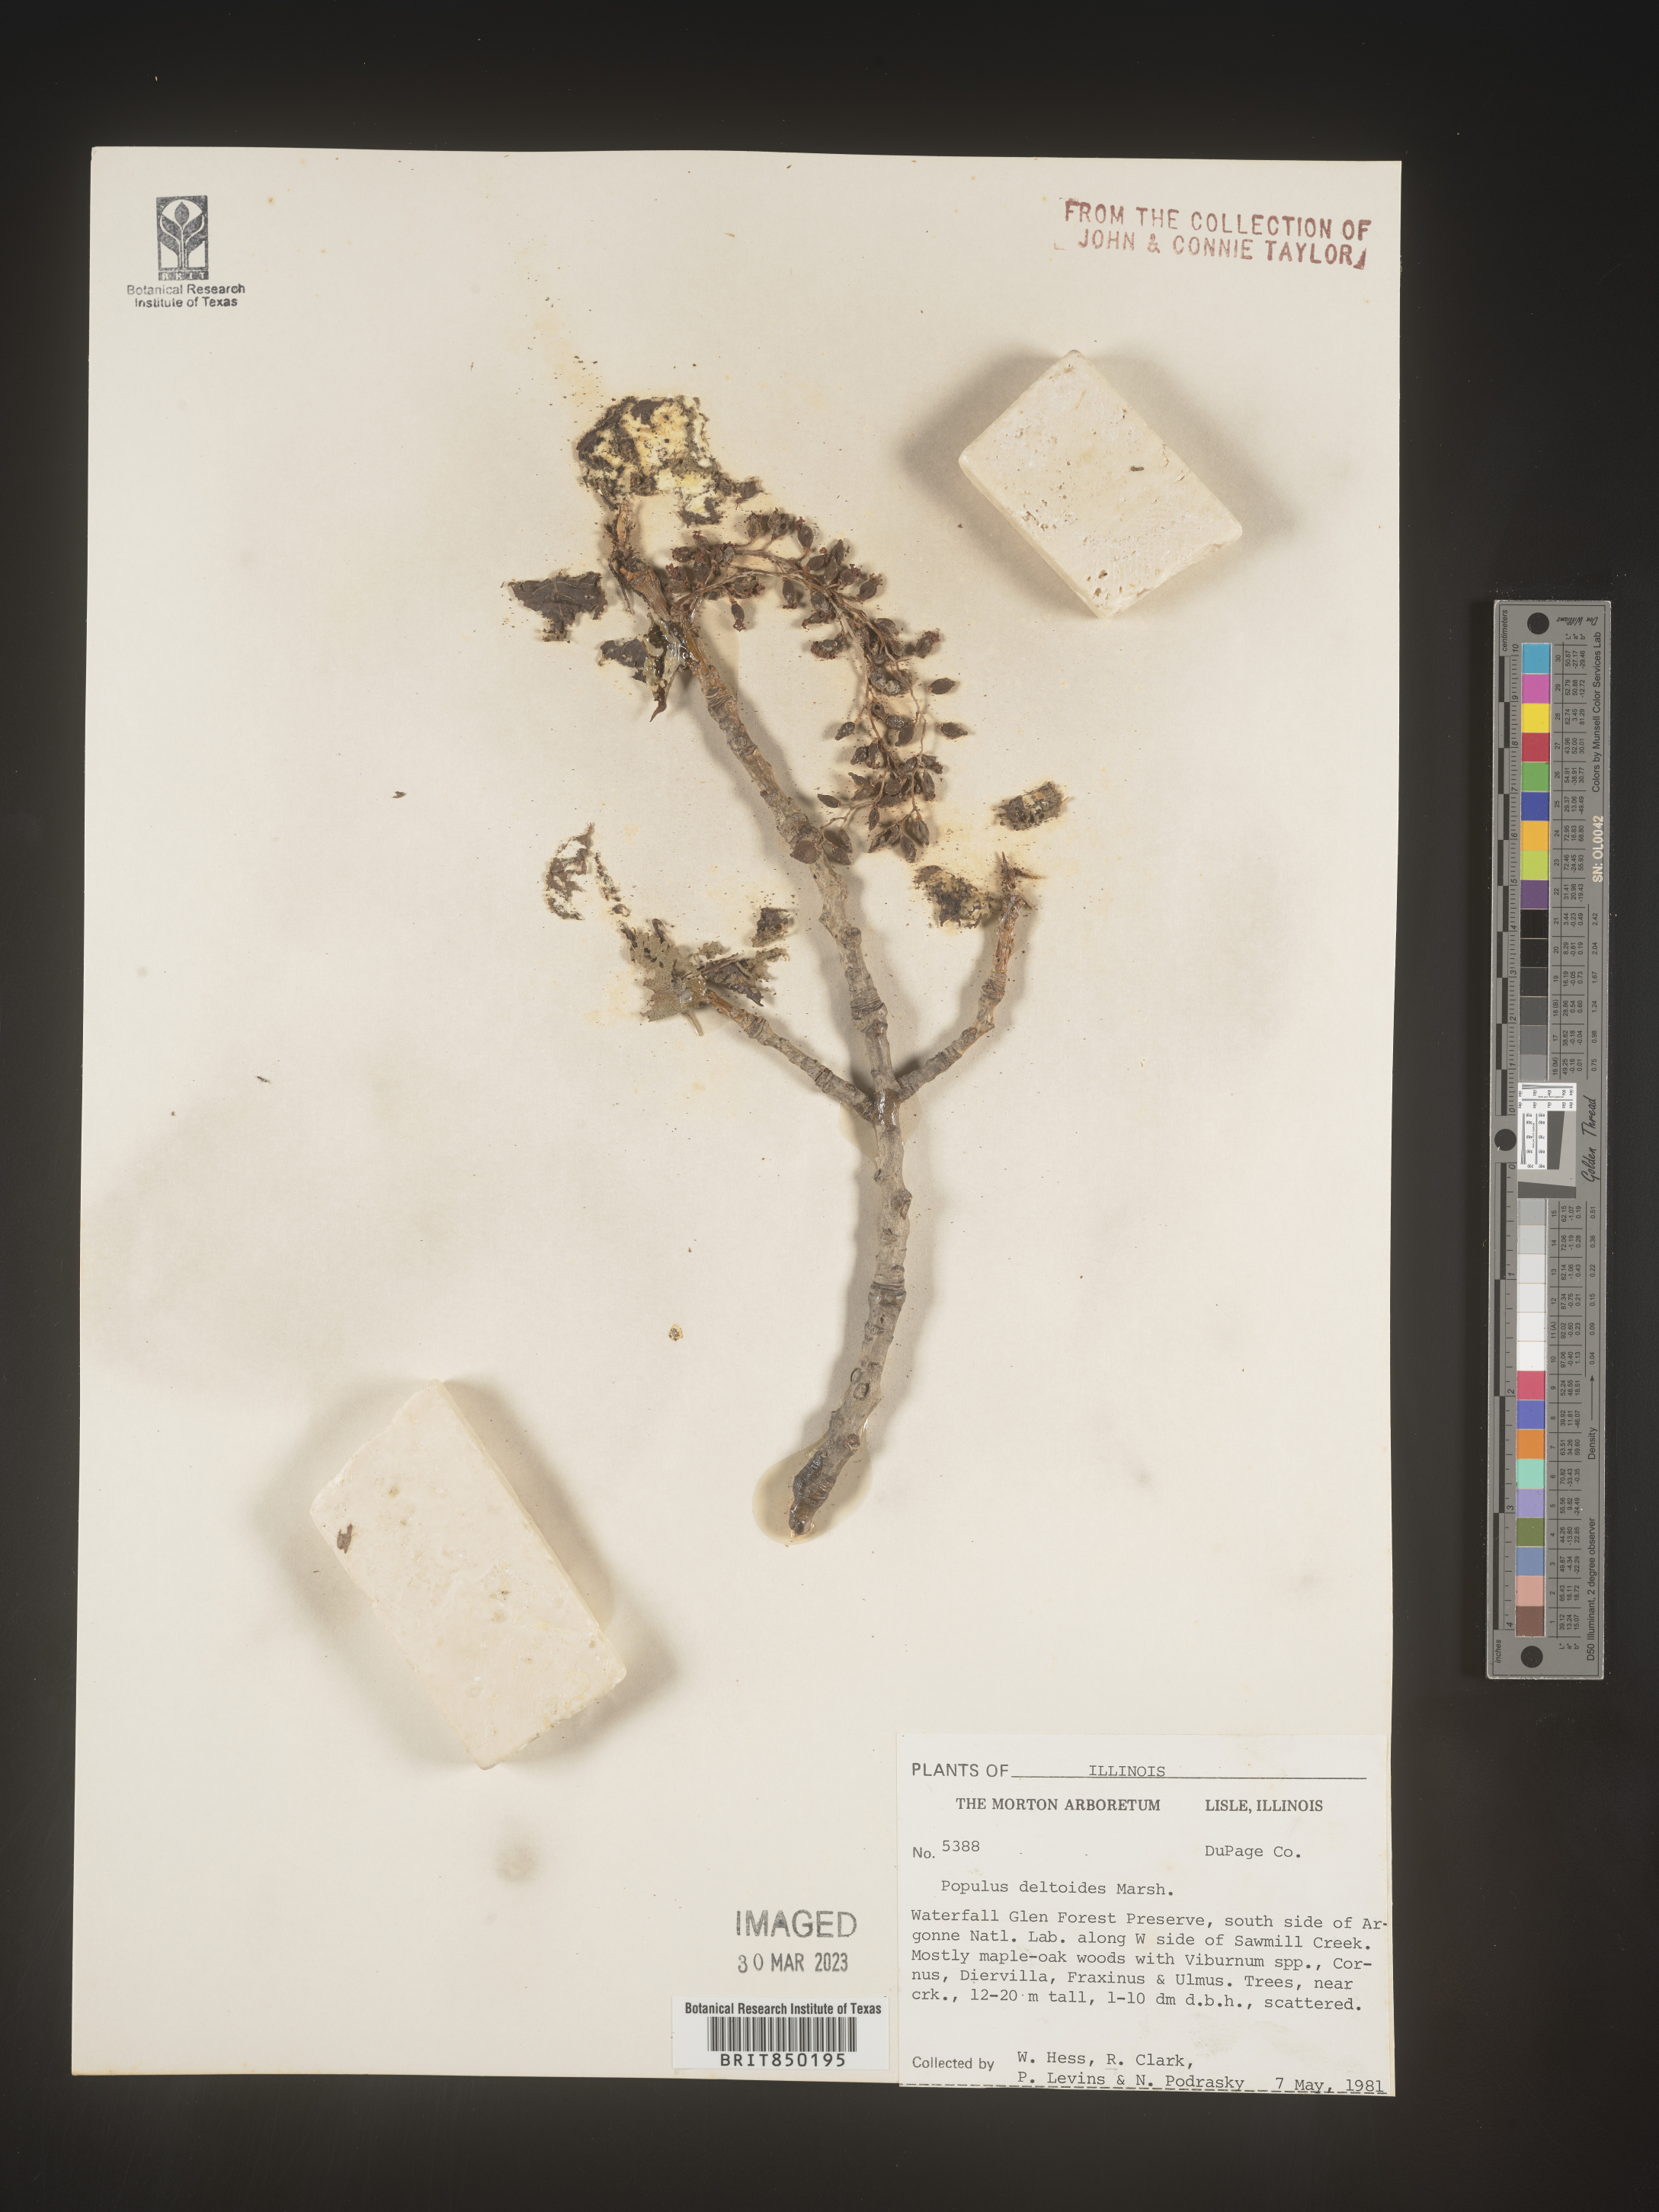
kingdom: Plantae
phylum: Tracheophyta
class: Magnoliopsida
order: Malpighiales
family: Salicaceae
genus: Populus
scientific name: Populus deltoides
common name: Eastern cottonwood
